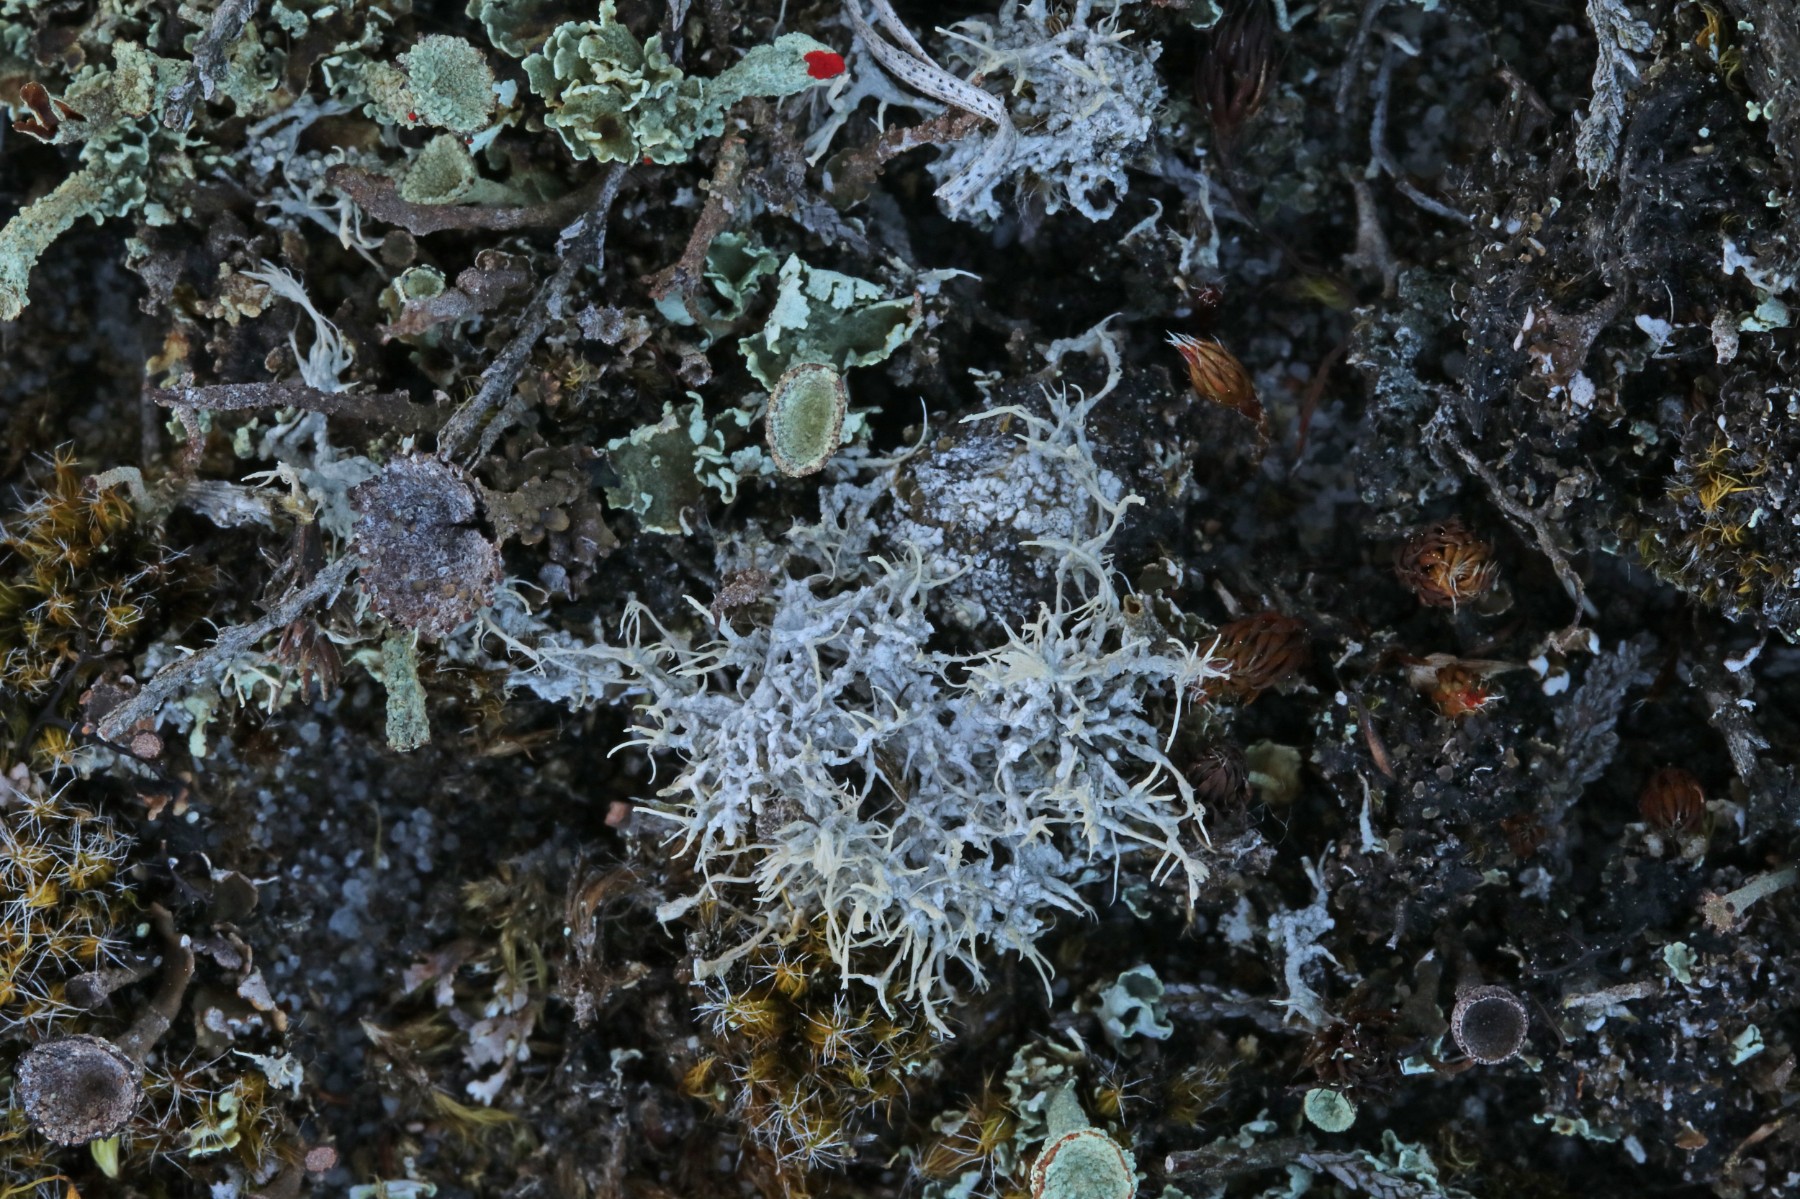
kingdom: Fungi
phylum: Ascomycota
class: Lecanoromycetes
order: Pertusariales
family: Ochrolechiaceae
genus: Ochrolechia
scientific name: Ochrolechia frigida
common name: fjeld-blegskivelav
